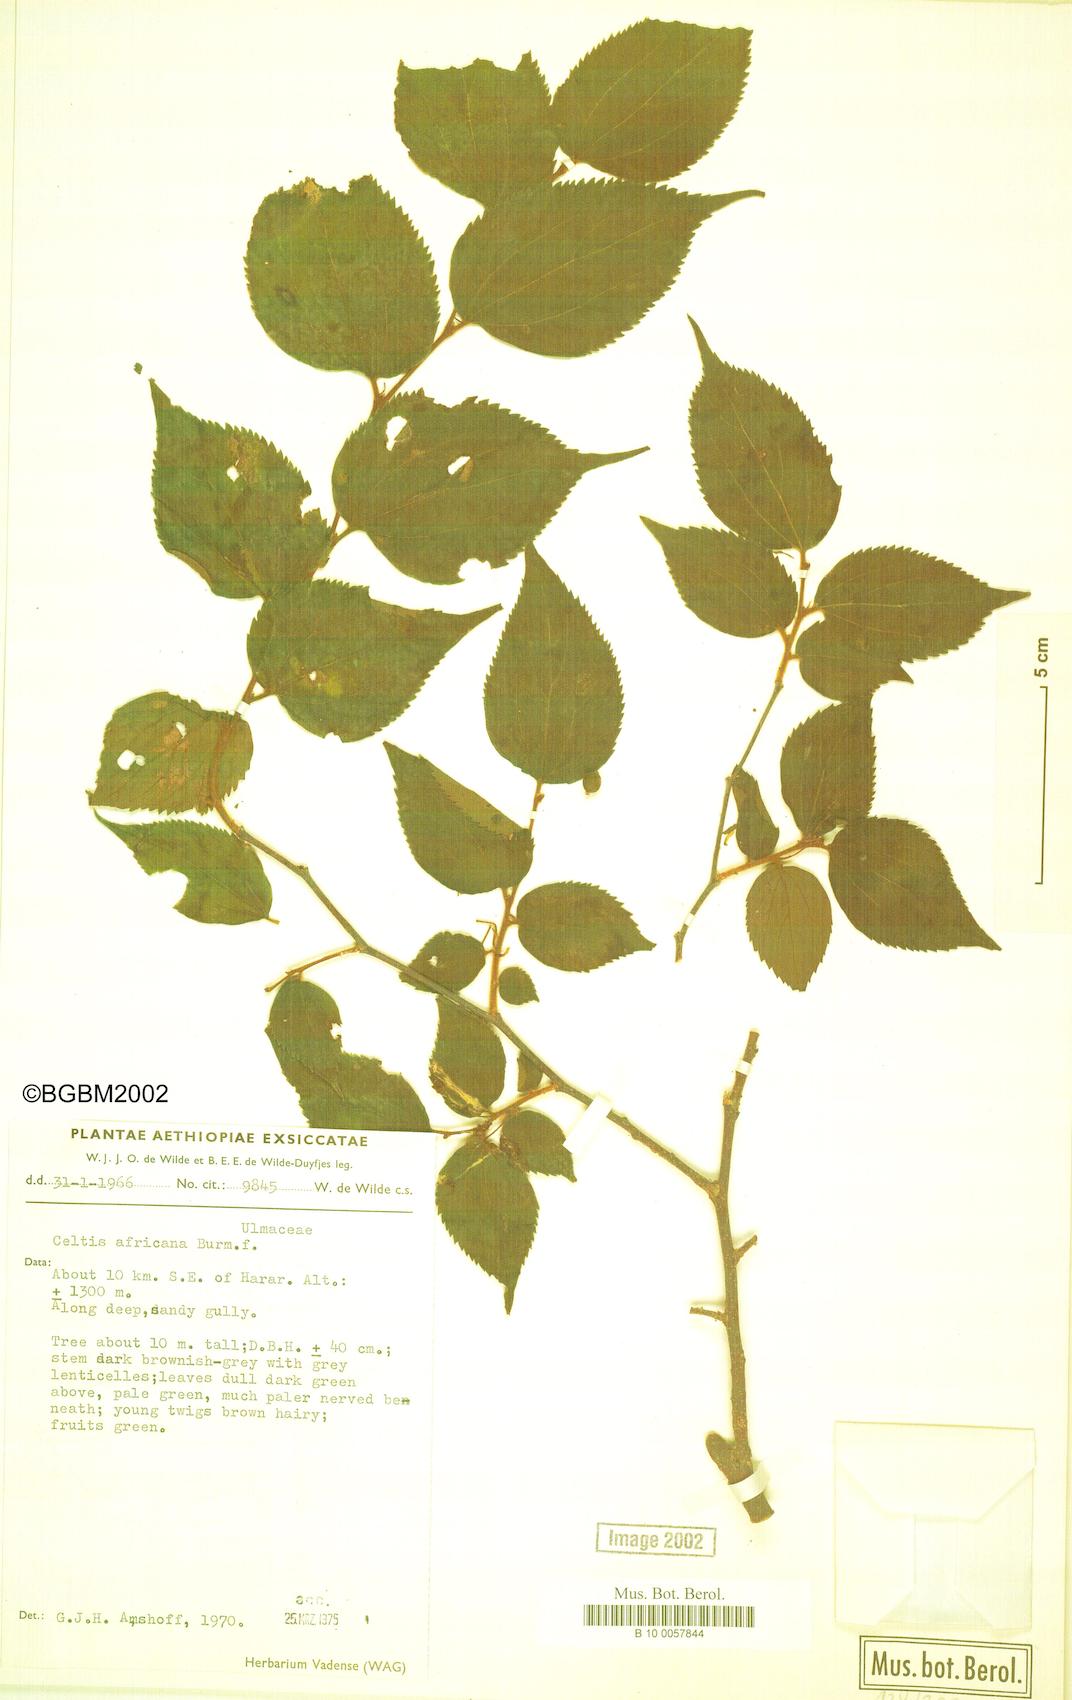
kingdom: Plantae
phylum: Tracheophyta
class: Magnoliopsida
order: Rosales
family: Cannabaceae
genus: Celtis
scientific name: Celtis africana
